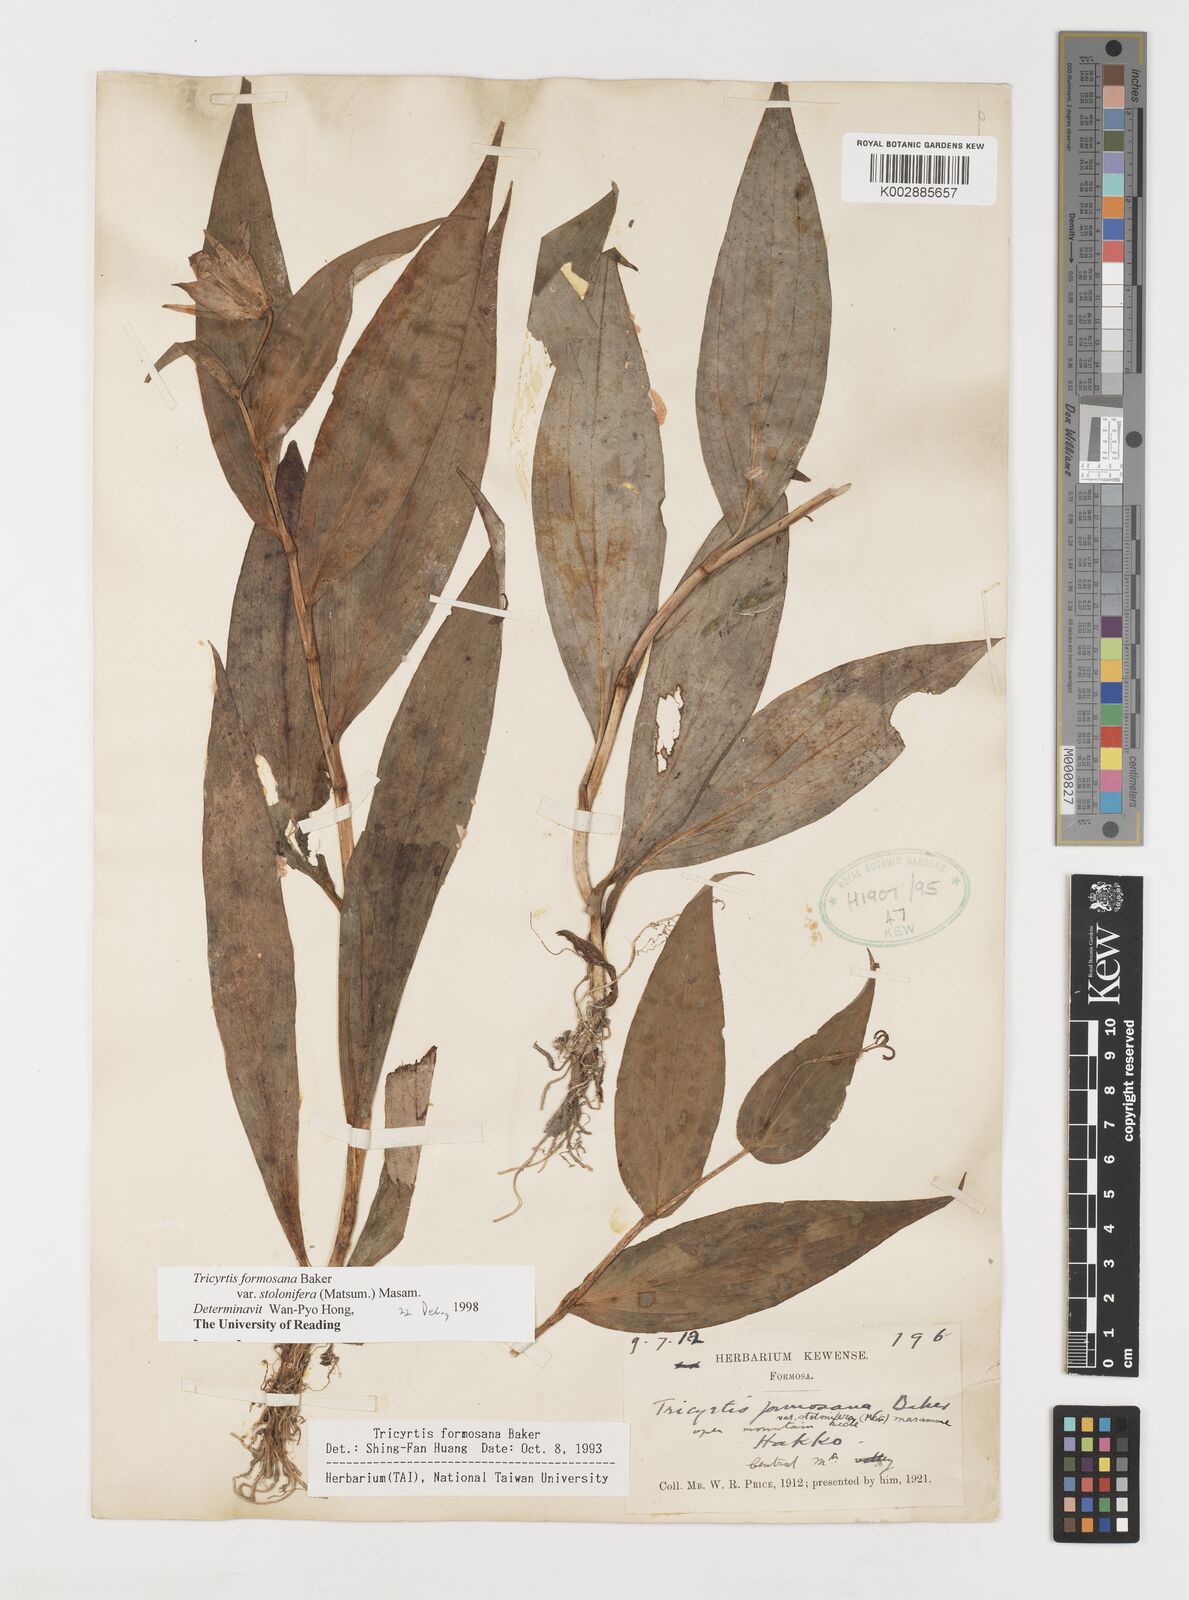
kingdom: Plantae
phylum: Tracheophyta
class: Liliopsida
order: Liliales
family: Liliaceae
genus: Tricyrtis
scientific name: Tricyrtis formosana
